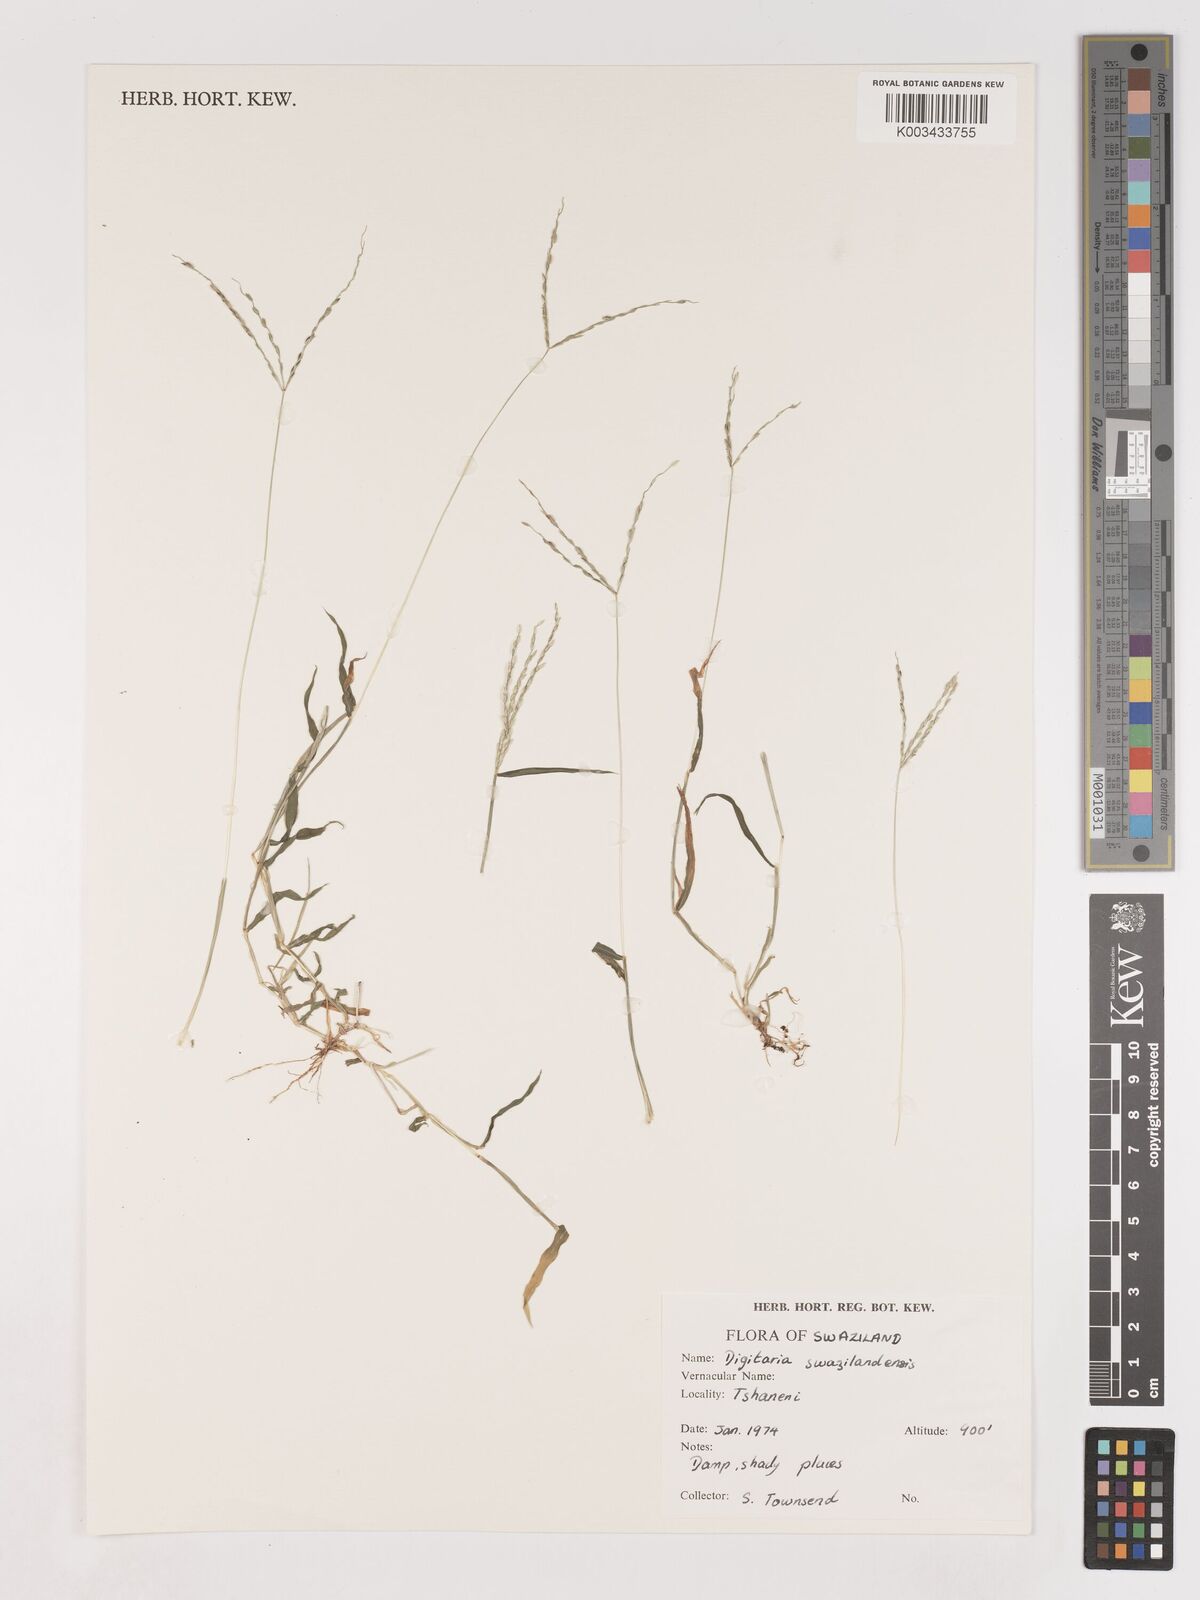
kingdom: Plantae
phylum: Tracheophyta
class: Liliopsida
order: Poales
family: Poaceae
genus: Digitaria
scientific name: Digitaria didactyla
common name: Blue couch
